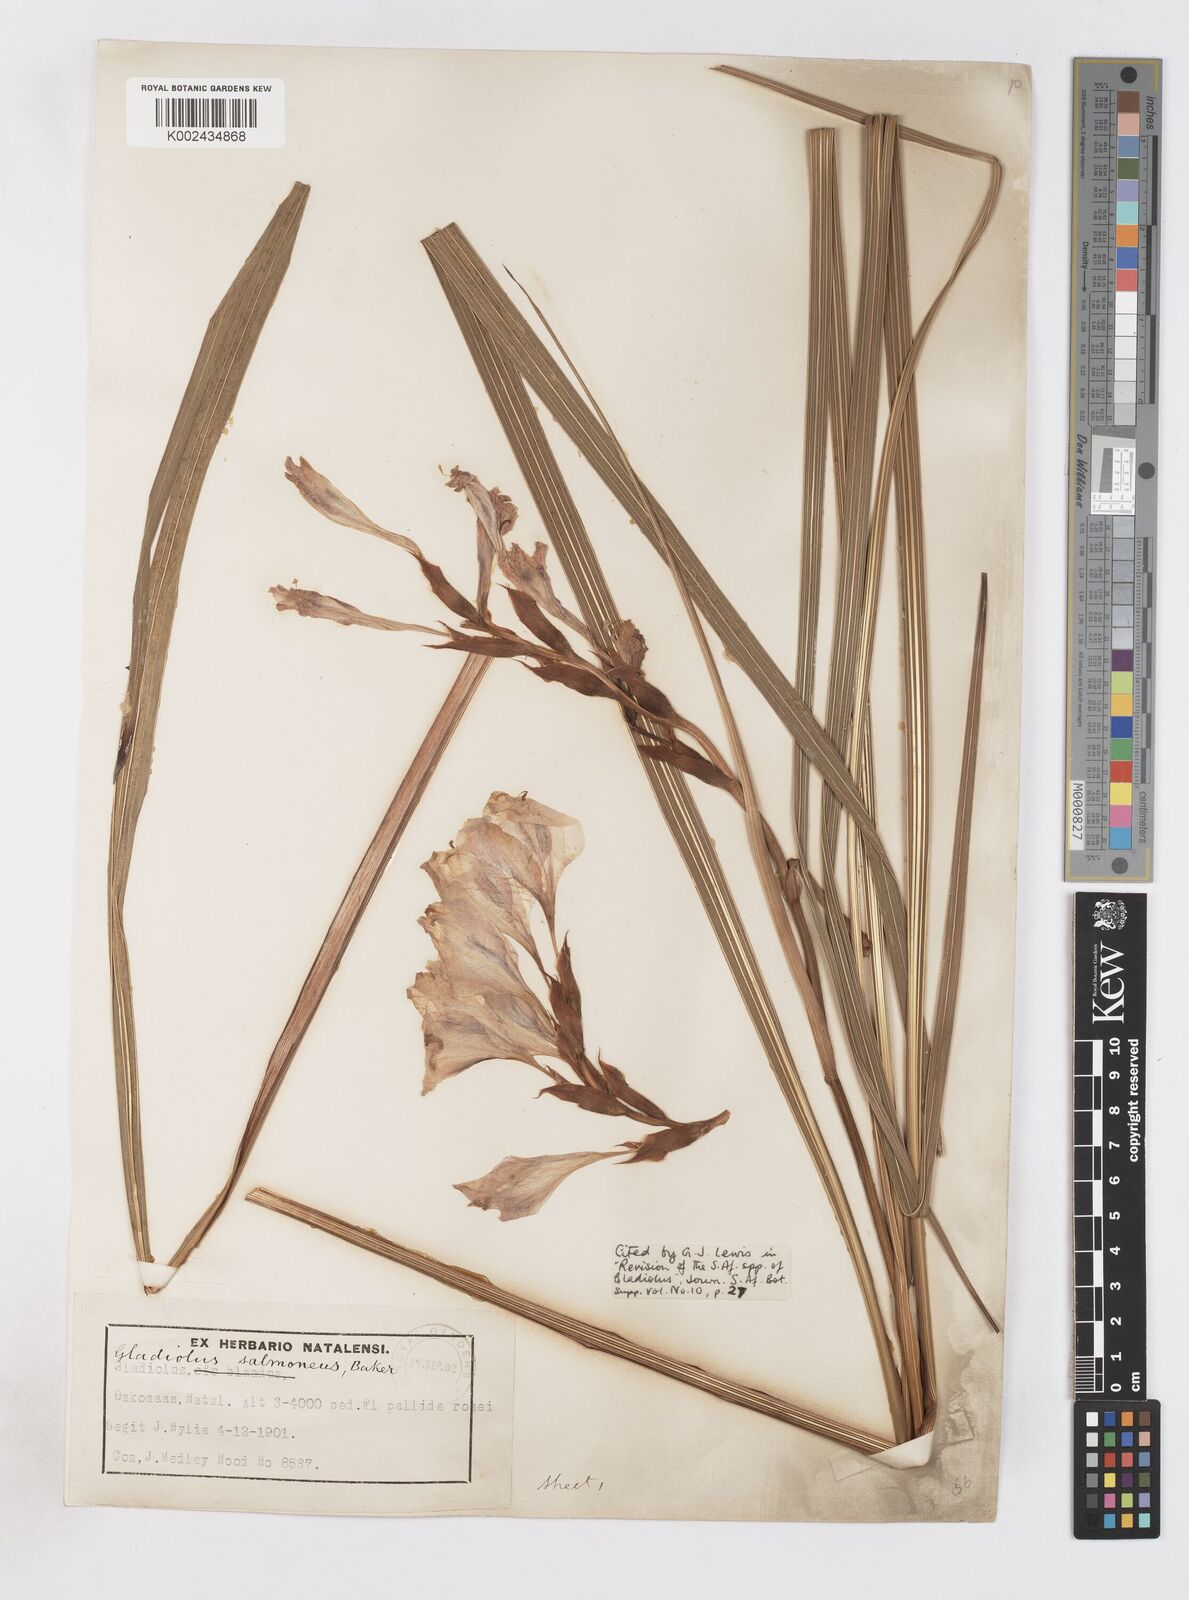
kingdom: Plantae
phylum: Tracheophyta
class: Liliopsida
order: Asparagales
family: Iridaceae
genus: Gladiolus
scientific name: Gladiolus oppositiflorus
